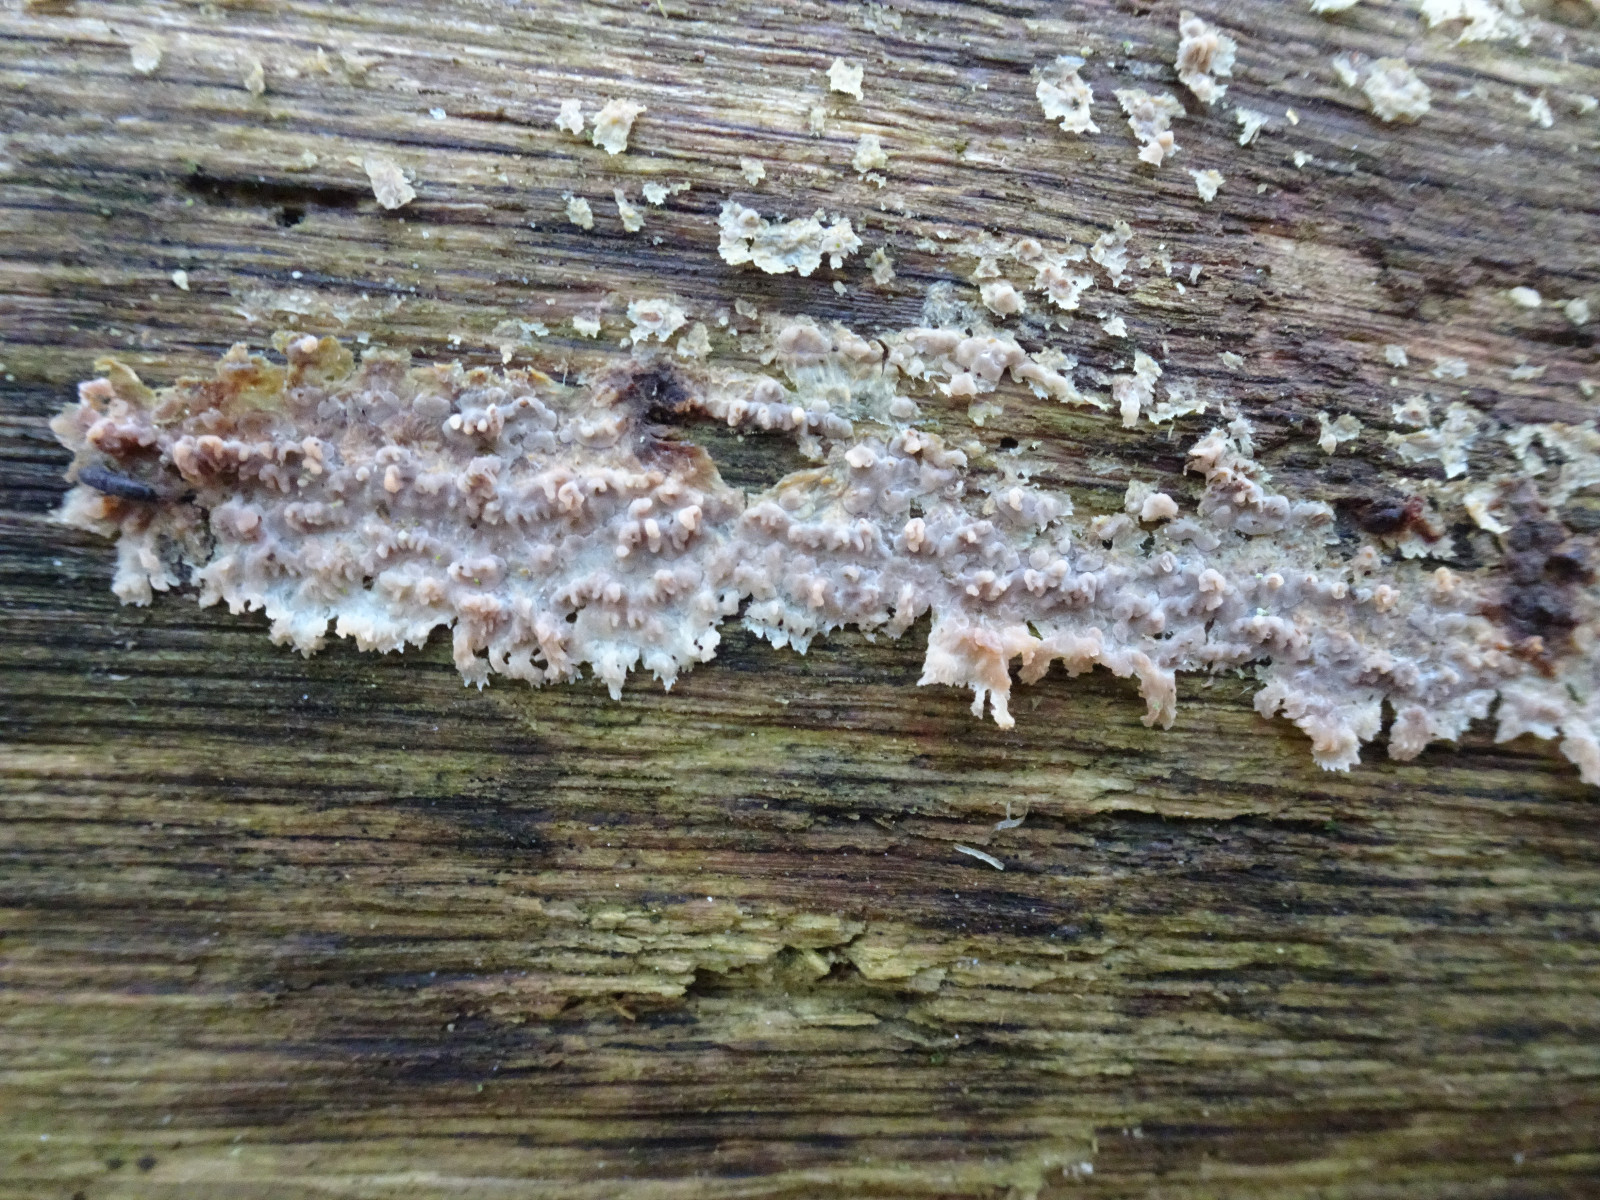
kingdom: Fungi
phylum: Basidiomycota
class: Agaricomycetes
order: Polyporales
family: Meruliaceae
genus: Phlebia
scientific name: Phlebia
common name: åresvamp
